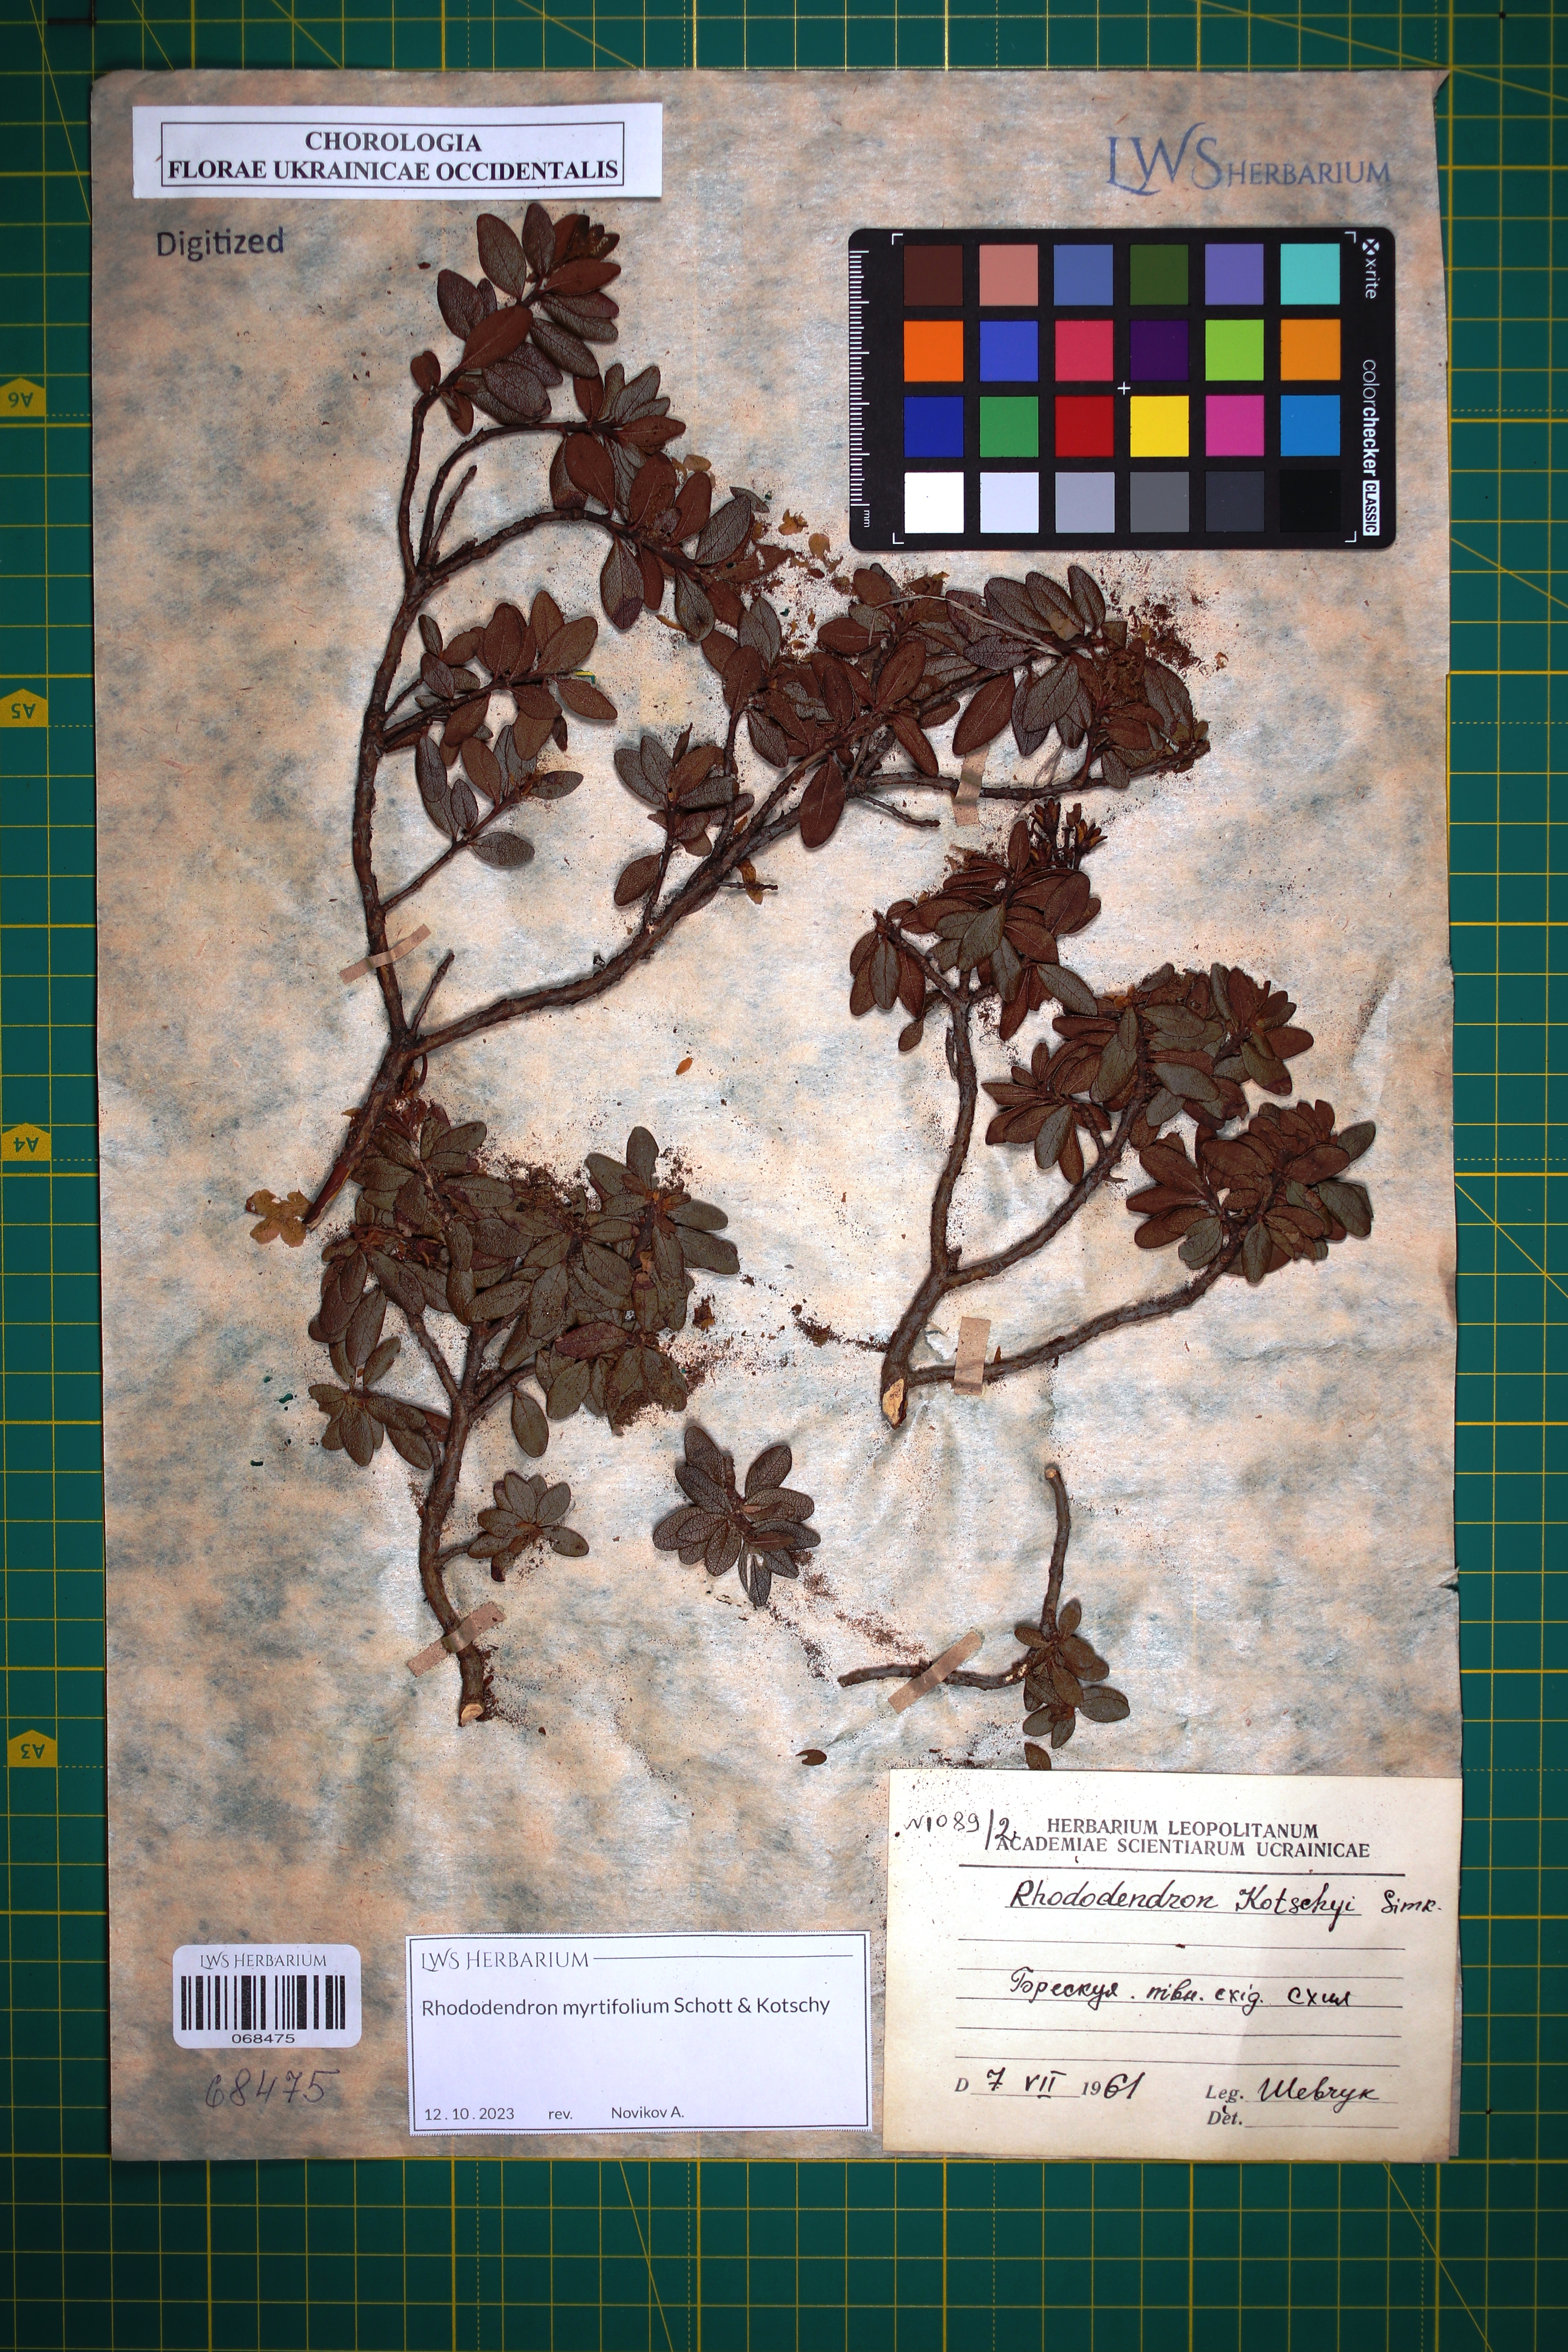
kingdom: Plantae
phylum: Tracheophyta
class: Magnoliopsida
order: Ericales
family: Ericaceae
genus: Rhododendron
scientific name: Rhododendron kotschyi
